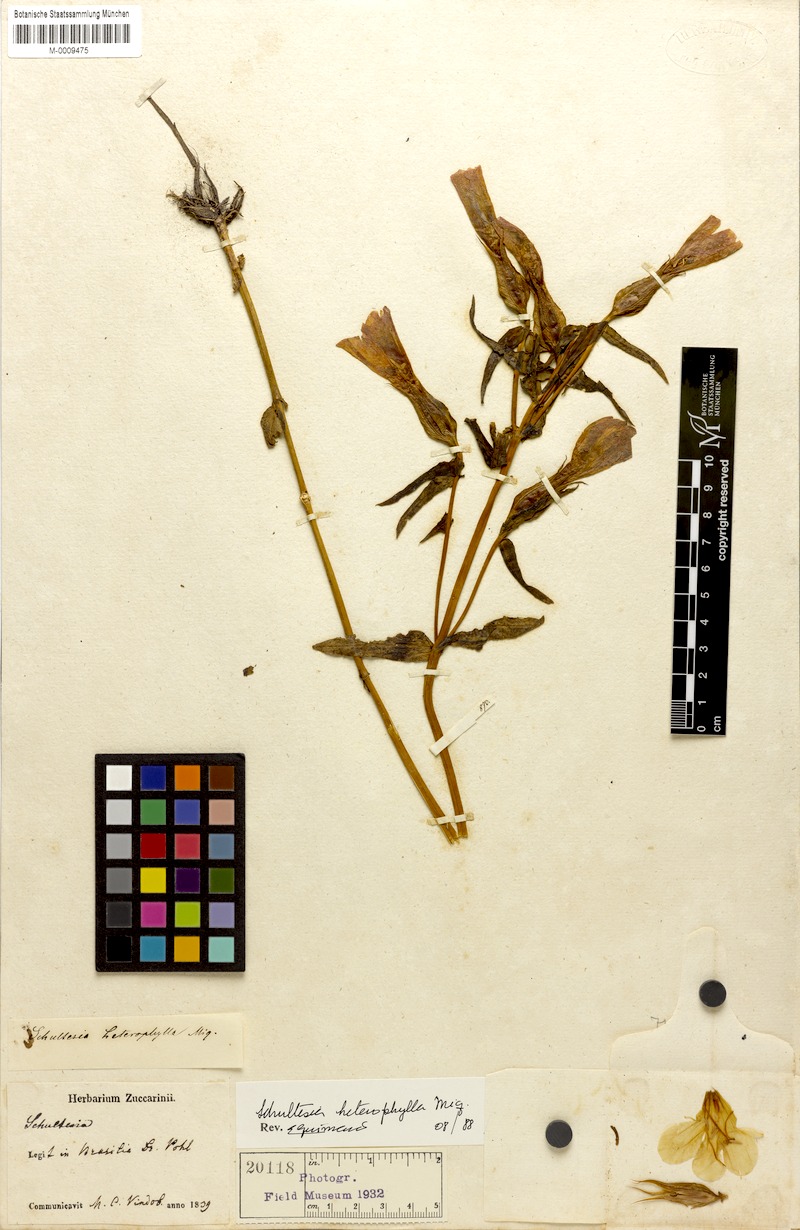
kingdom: Plantae
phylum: Tracheophyta
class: Magnoliopsida
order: Gentianales
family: Gentianaceae
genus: Schultesia
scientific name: Schultesia brachyptera
